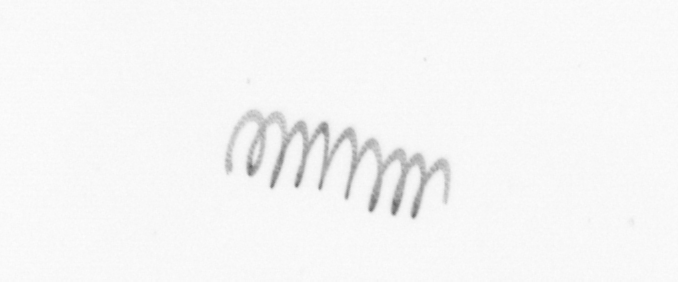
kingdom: Chromista
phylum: Ochrophyta
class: Bacillariophyceae
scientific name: Bacillariophyceae
